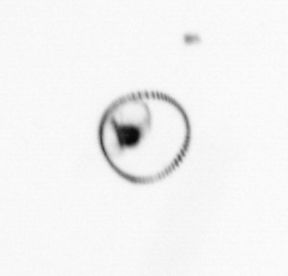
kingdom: Chromista
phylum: Myzozoa
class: Dinophyceae
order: Noctilucales
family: Noctilucaceae
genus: Noctiluca
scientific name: Noctiluca scintillans
